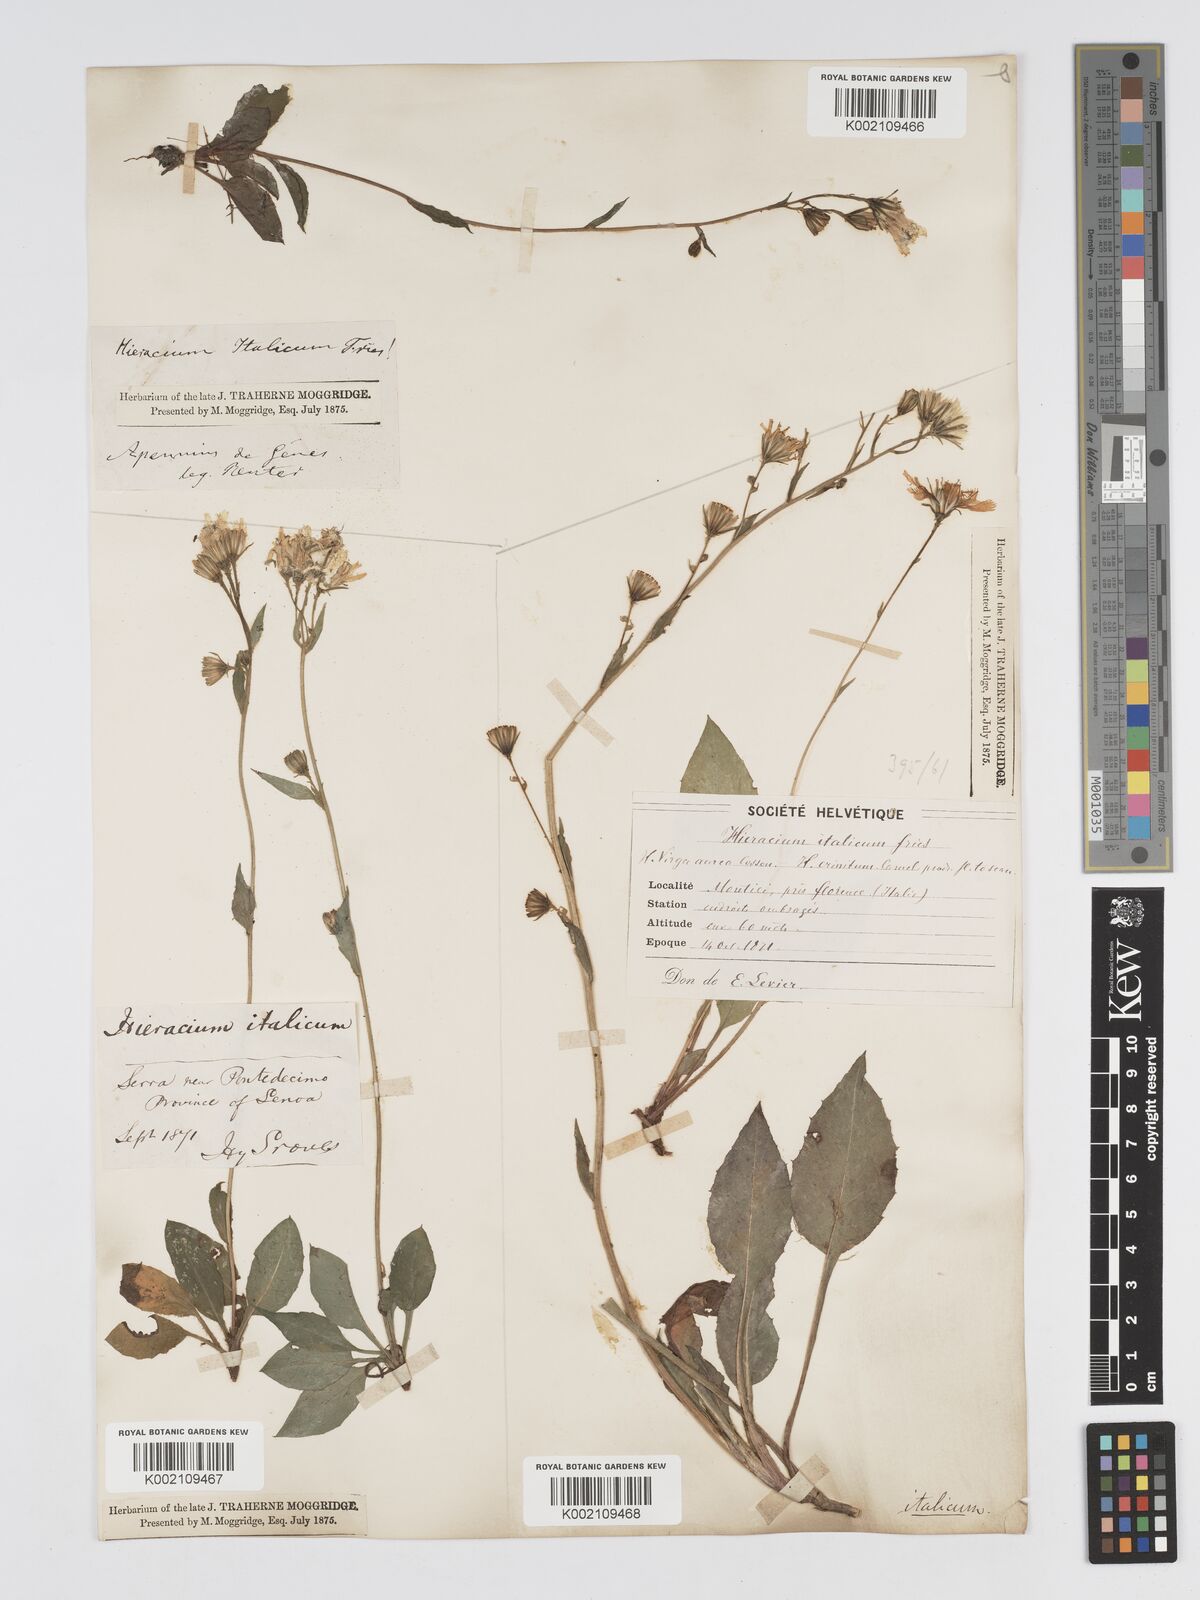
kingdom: Plantae
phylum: Tracheophyta
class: Magnoliopsida
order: Asterales
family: Asteraceae
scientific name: Asteraceae
